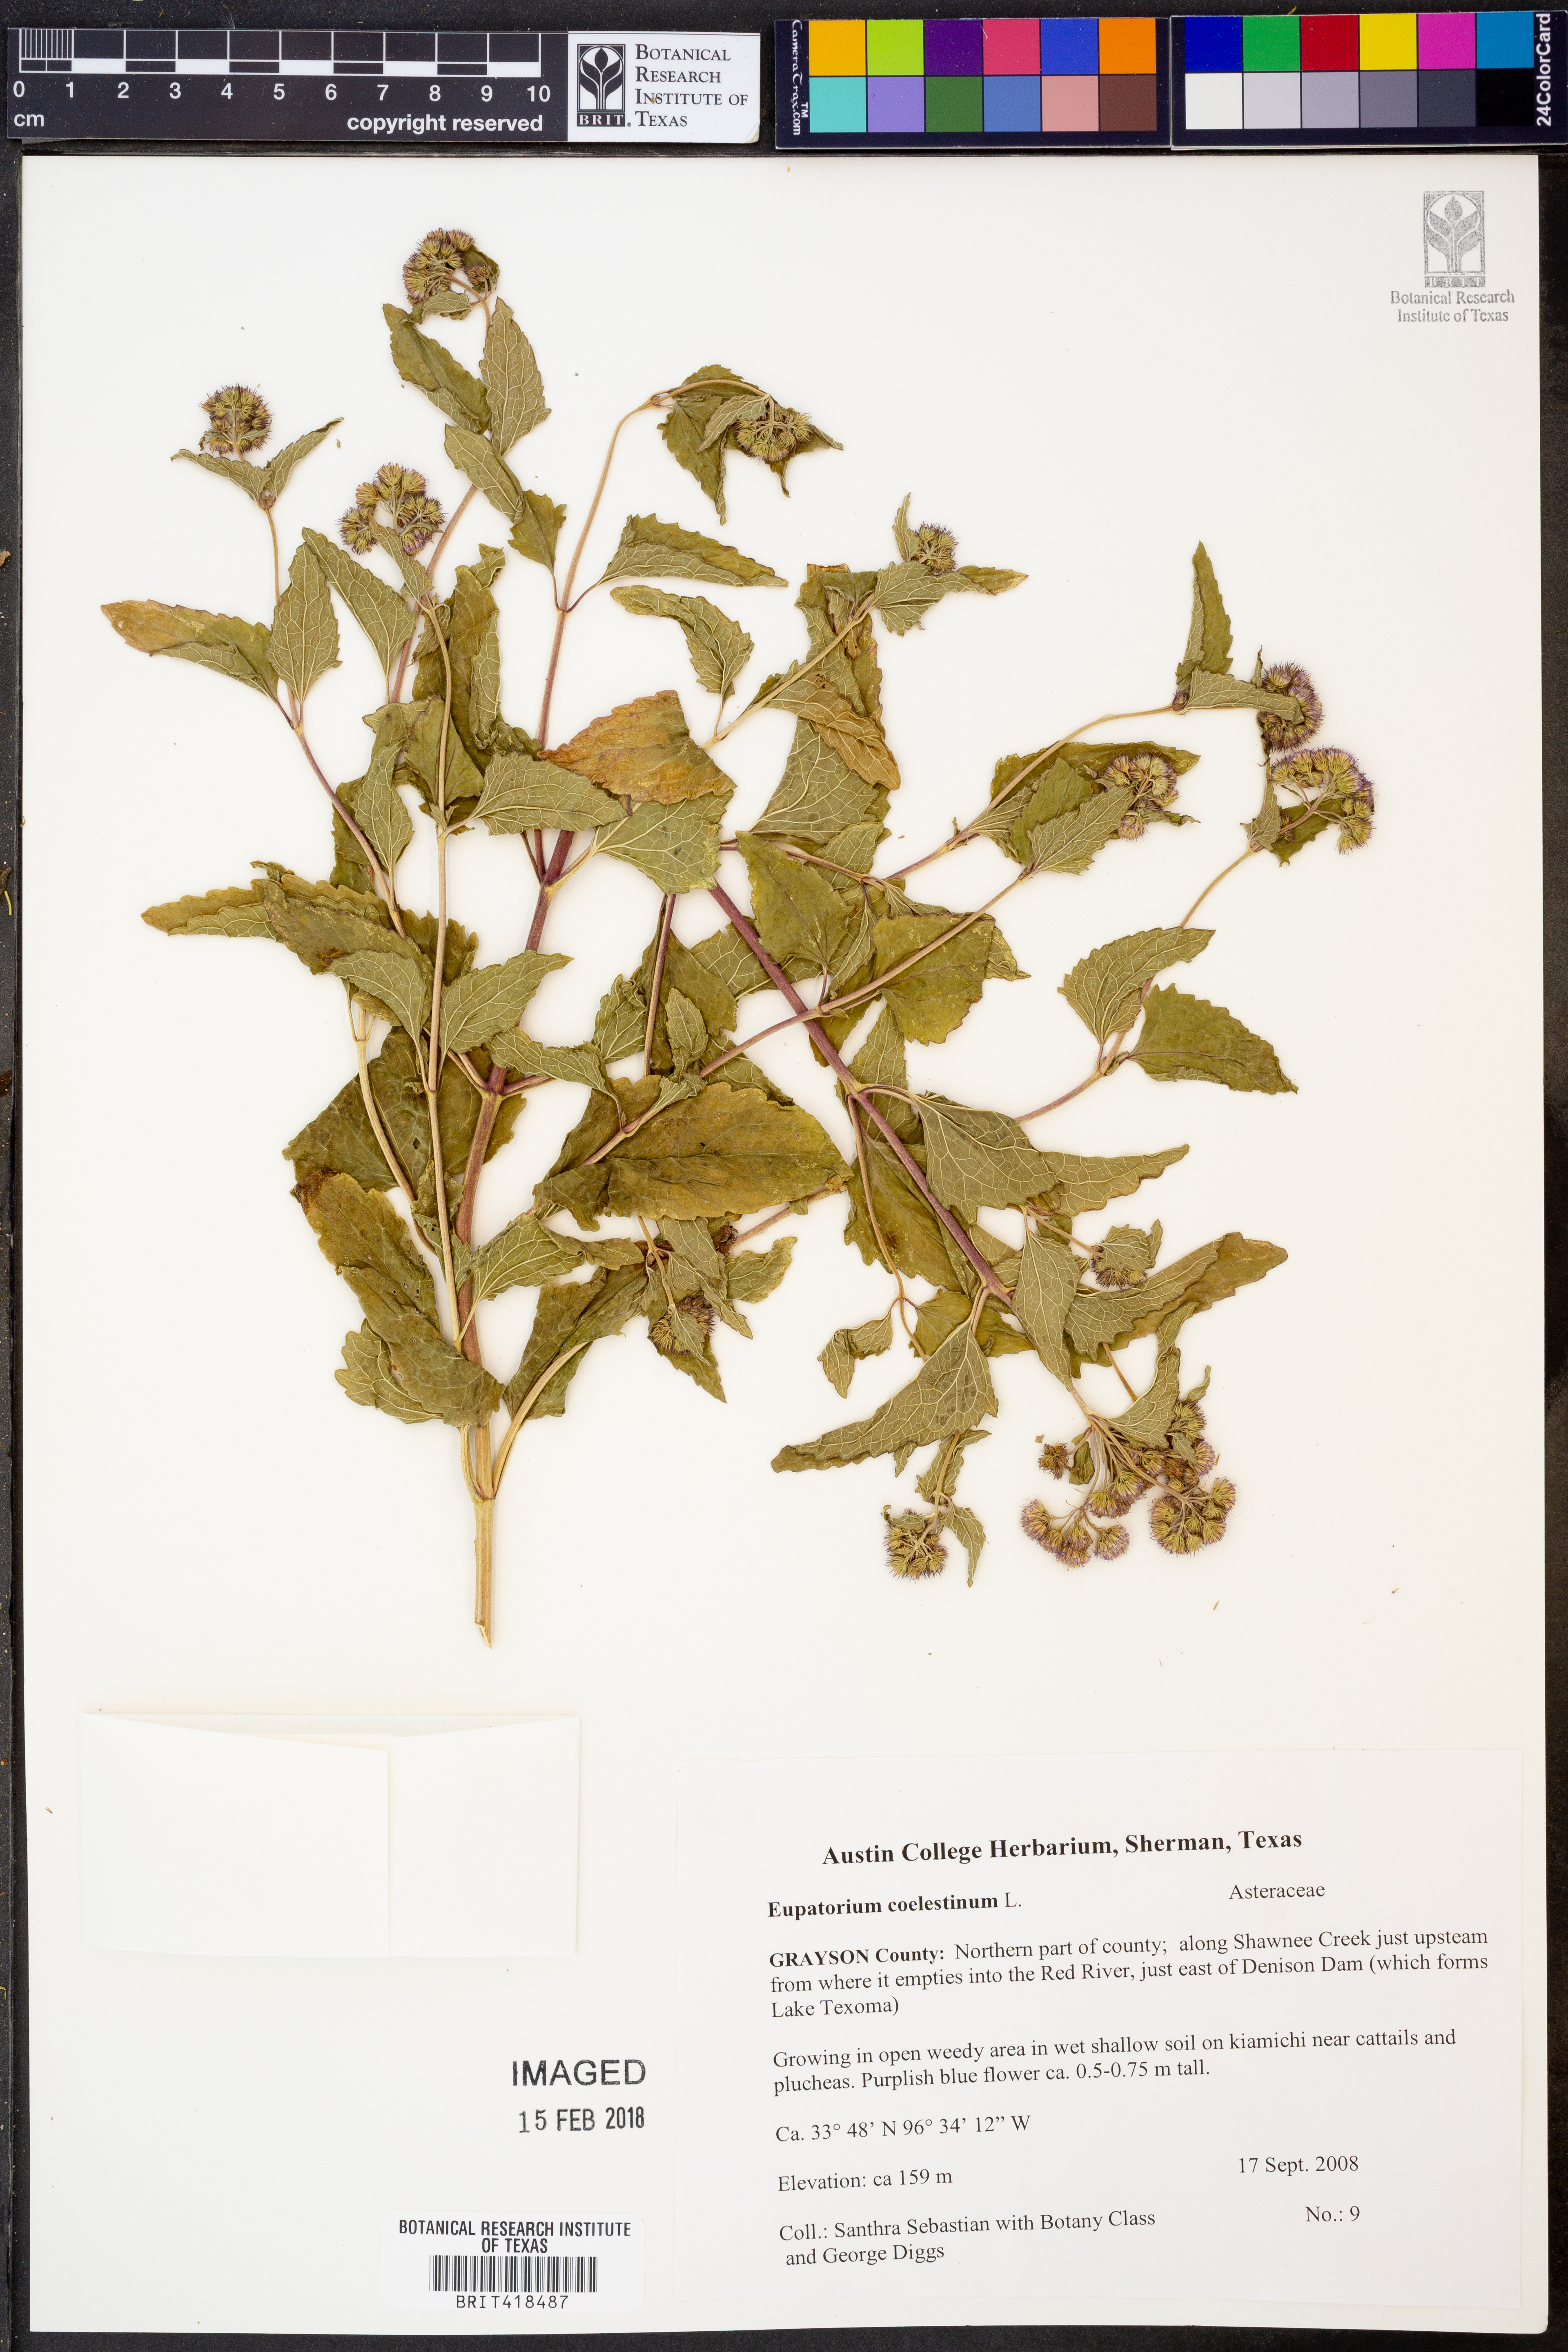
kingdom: Plantae
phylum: Tracheophyta
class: Magnoliopsida
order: Asterales
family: Asteraceae
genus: Conoclinium
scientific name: Conoclinium coelestinum
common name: Blue mistflower
